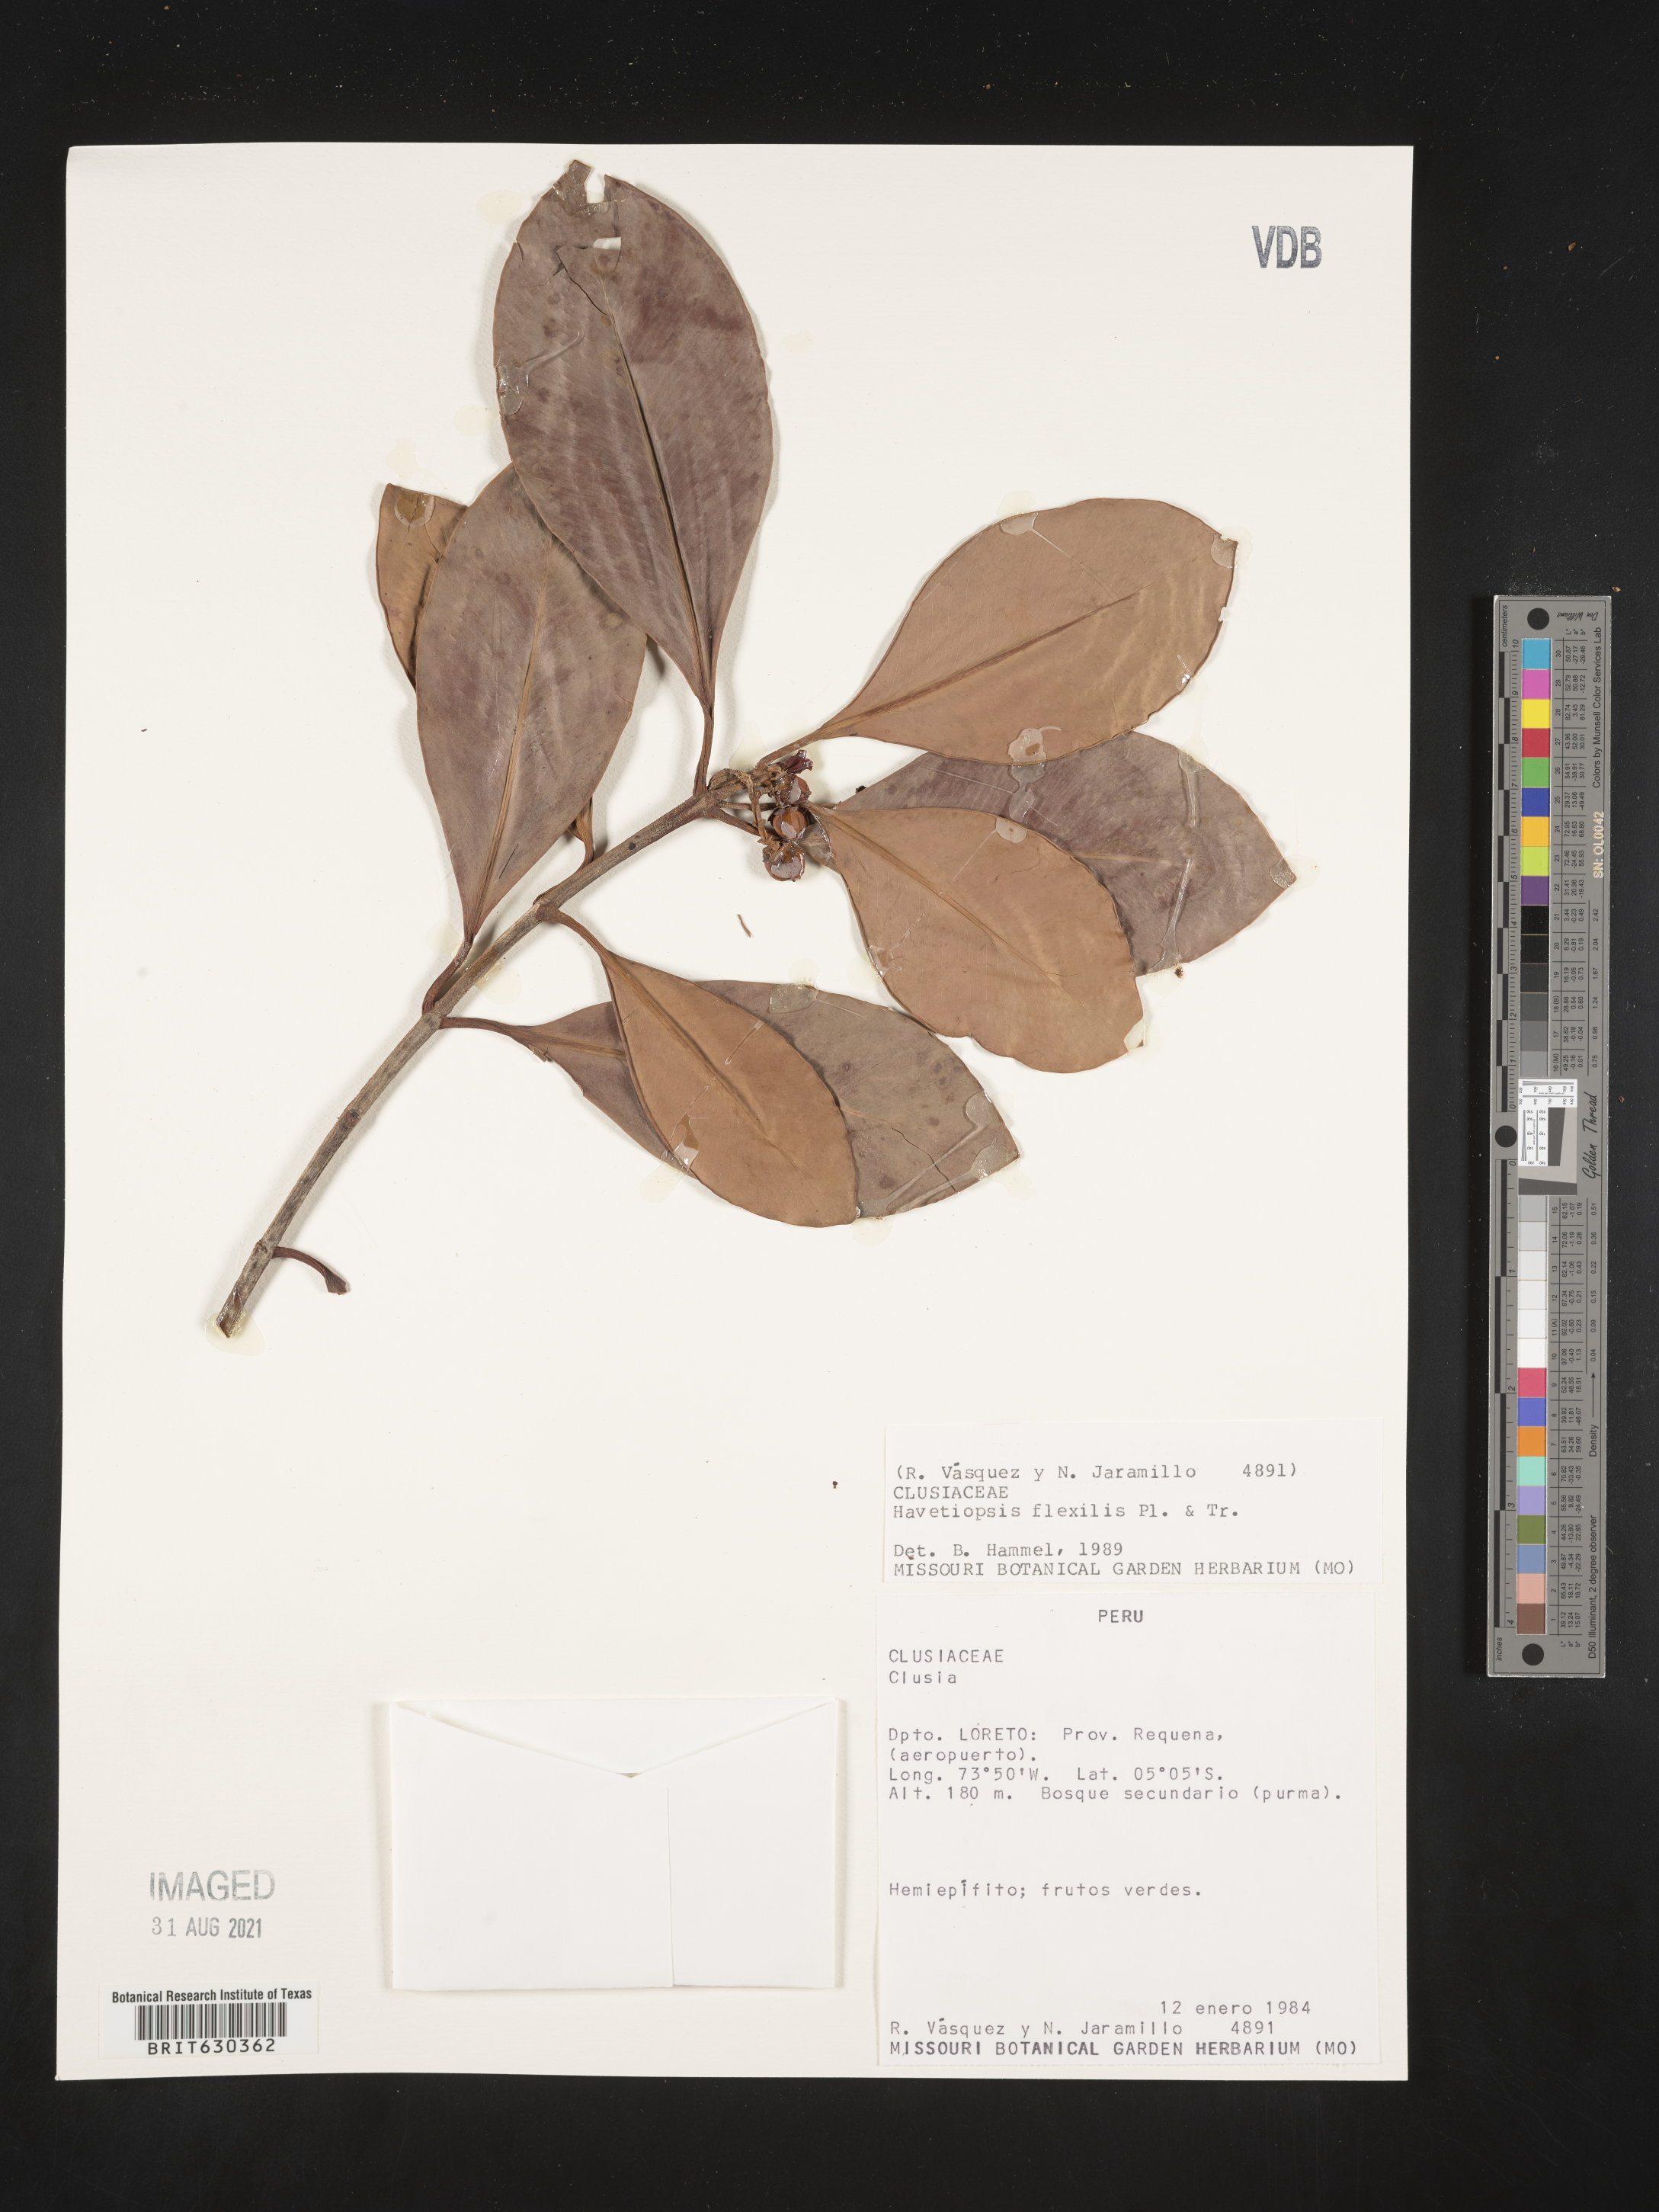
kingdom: Plantae
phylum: Tracheophyta
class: Magnoliopsida
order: Malpighiales
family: Clusiaceae
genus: Clusia
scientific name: Clusia flavida
